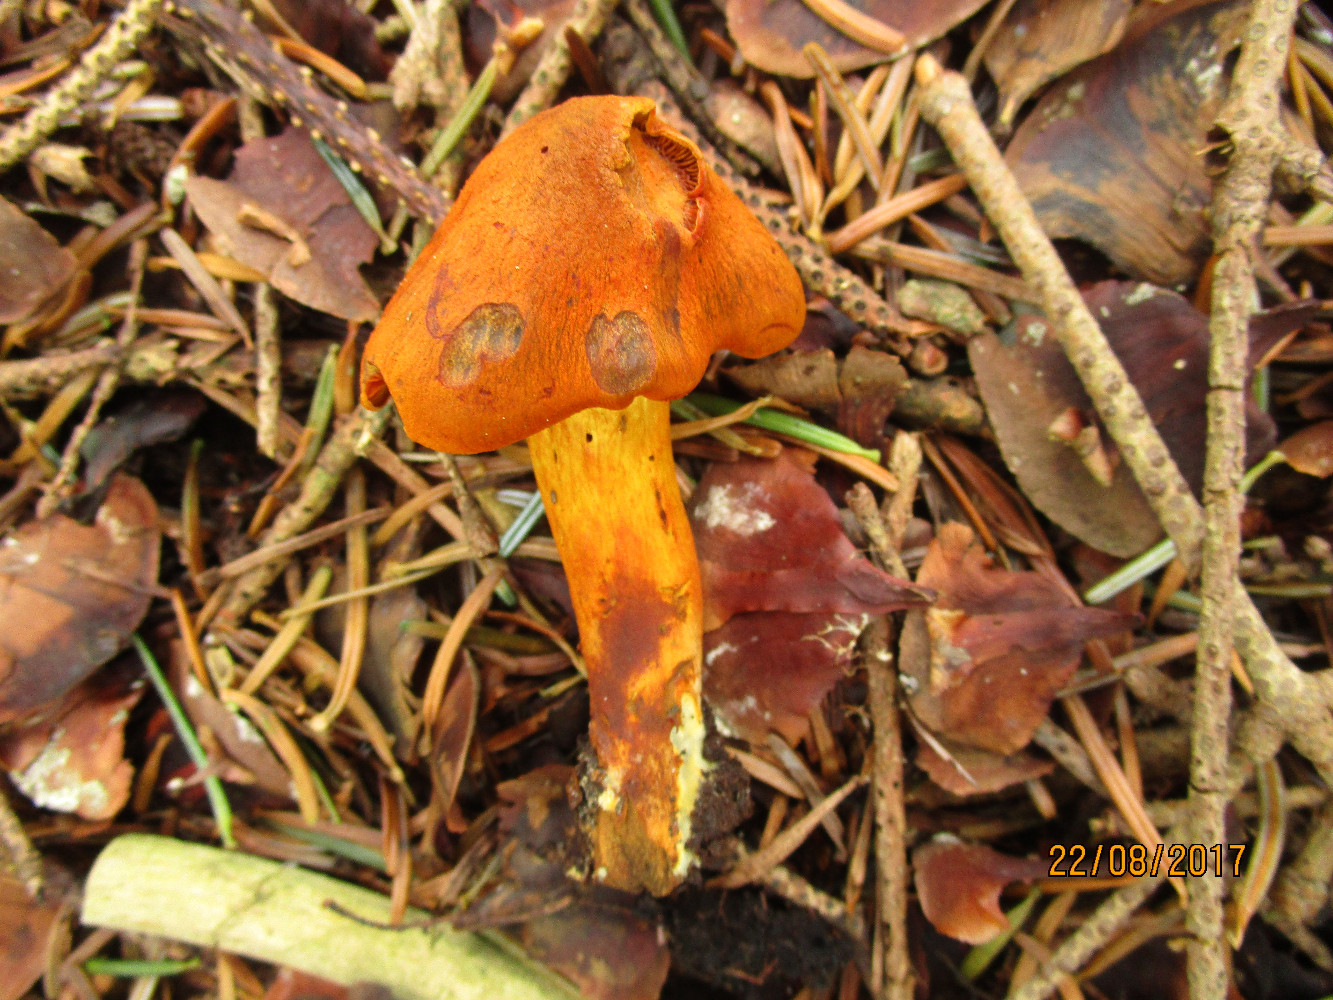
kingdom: Fungi
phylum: Basidiomycota
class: Agaricomycetes
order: Agaricales
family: Cortinariaceae
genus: Cortinarius
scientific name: Cortinarius malicorius
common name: grønkødet slørhat
